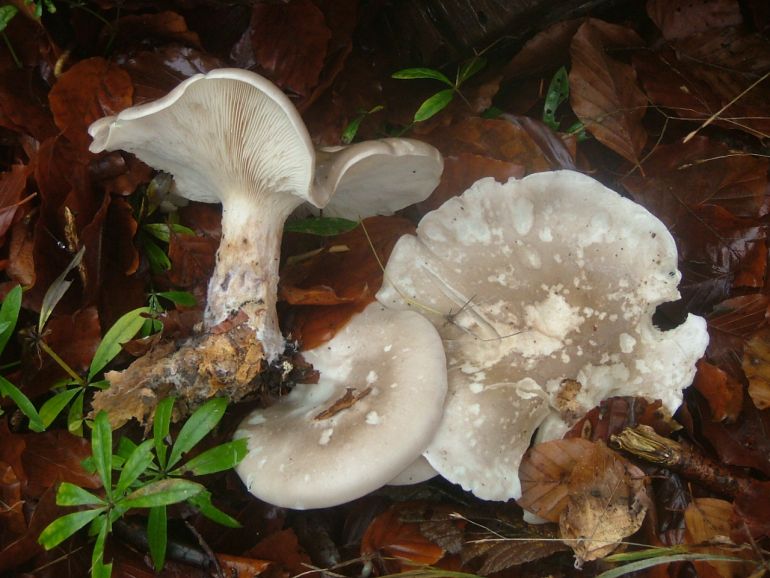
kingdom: Fungi
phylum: Basidiomycota
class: Agaricomycetes
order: Agaricales
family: Tricholomataceae
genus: Clitocybe
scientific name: Clitocybe nebularis
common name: tåge-tragthat
